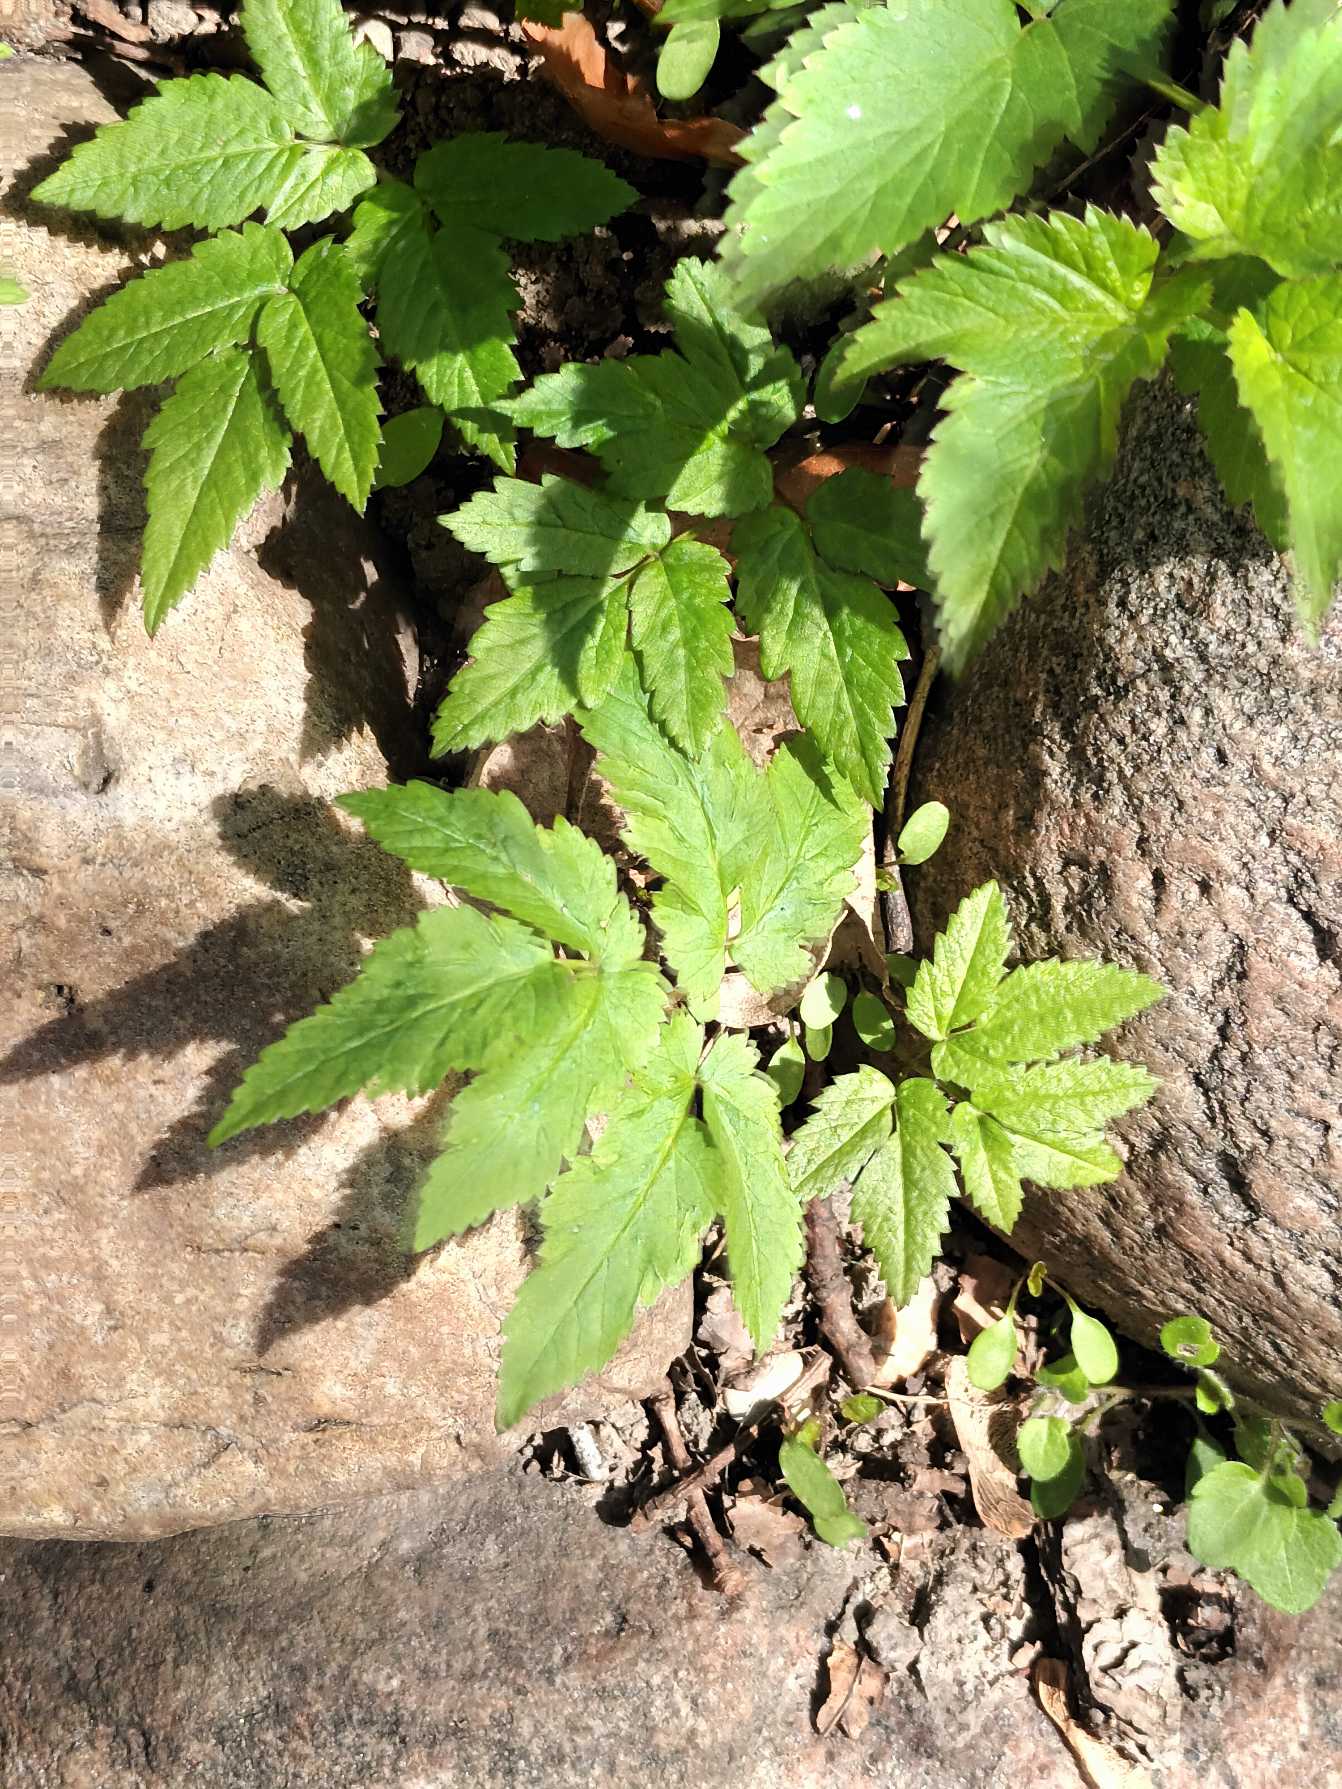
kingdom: Plantae
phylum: Tracheophyta
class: Magnoliopsida
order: Apiales
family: Apiaceae
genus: Aegopodium
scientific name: Aegopodium podagraria
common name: Skvalderkål
